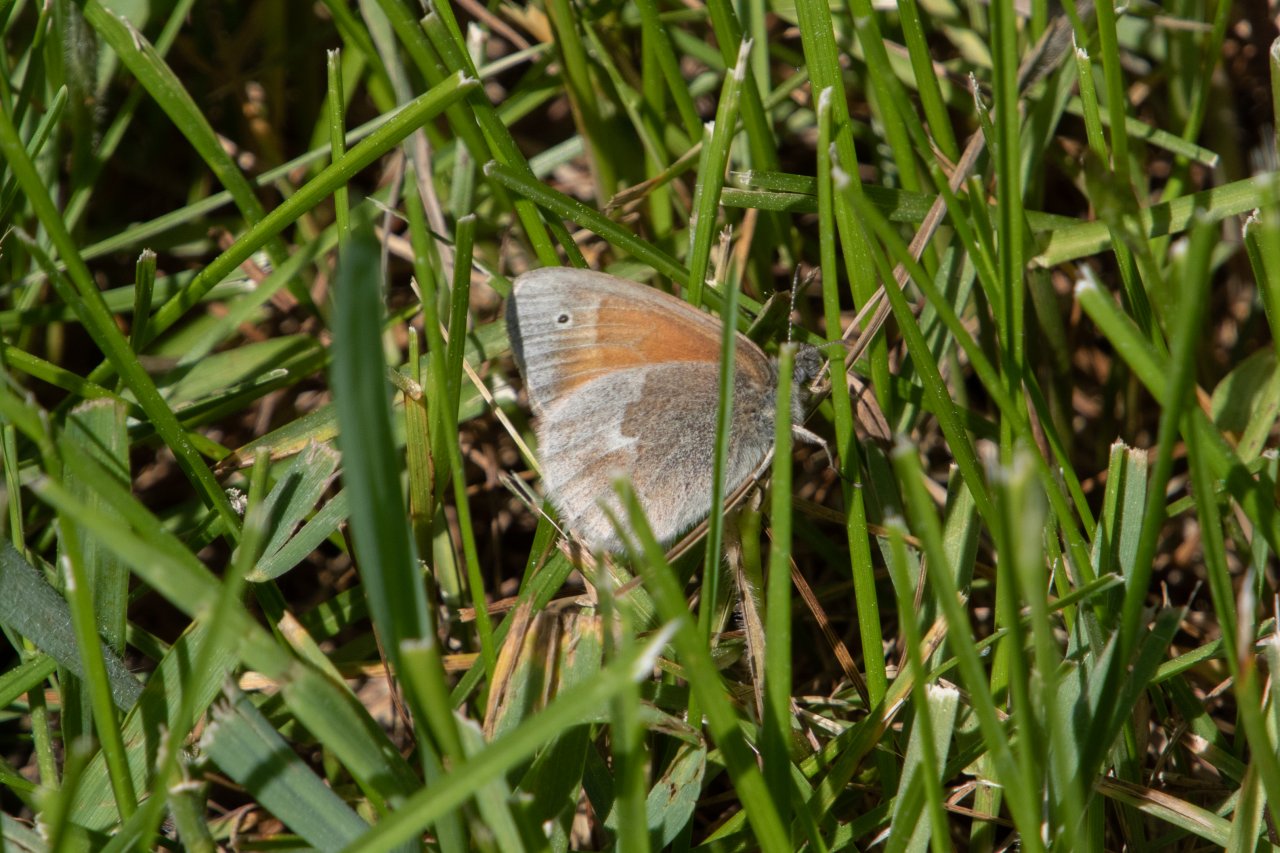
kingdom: Animalia
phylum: Arthropoda
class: Insecta
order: Lepidoptera
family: Nymphalidae
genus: Coenonympha
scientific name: Coenonympha tullia
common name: Large Heath
